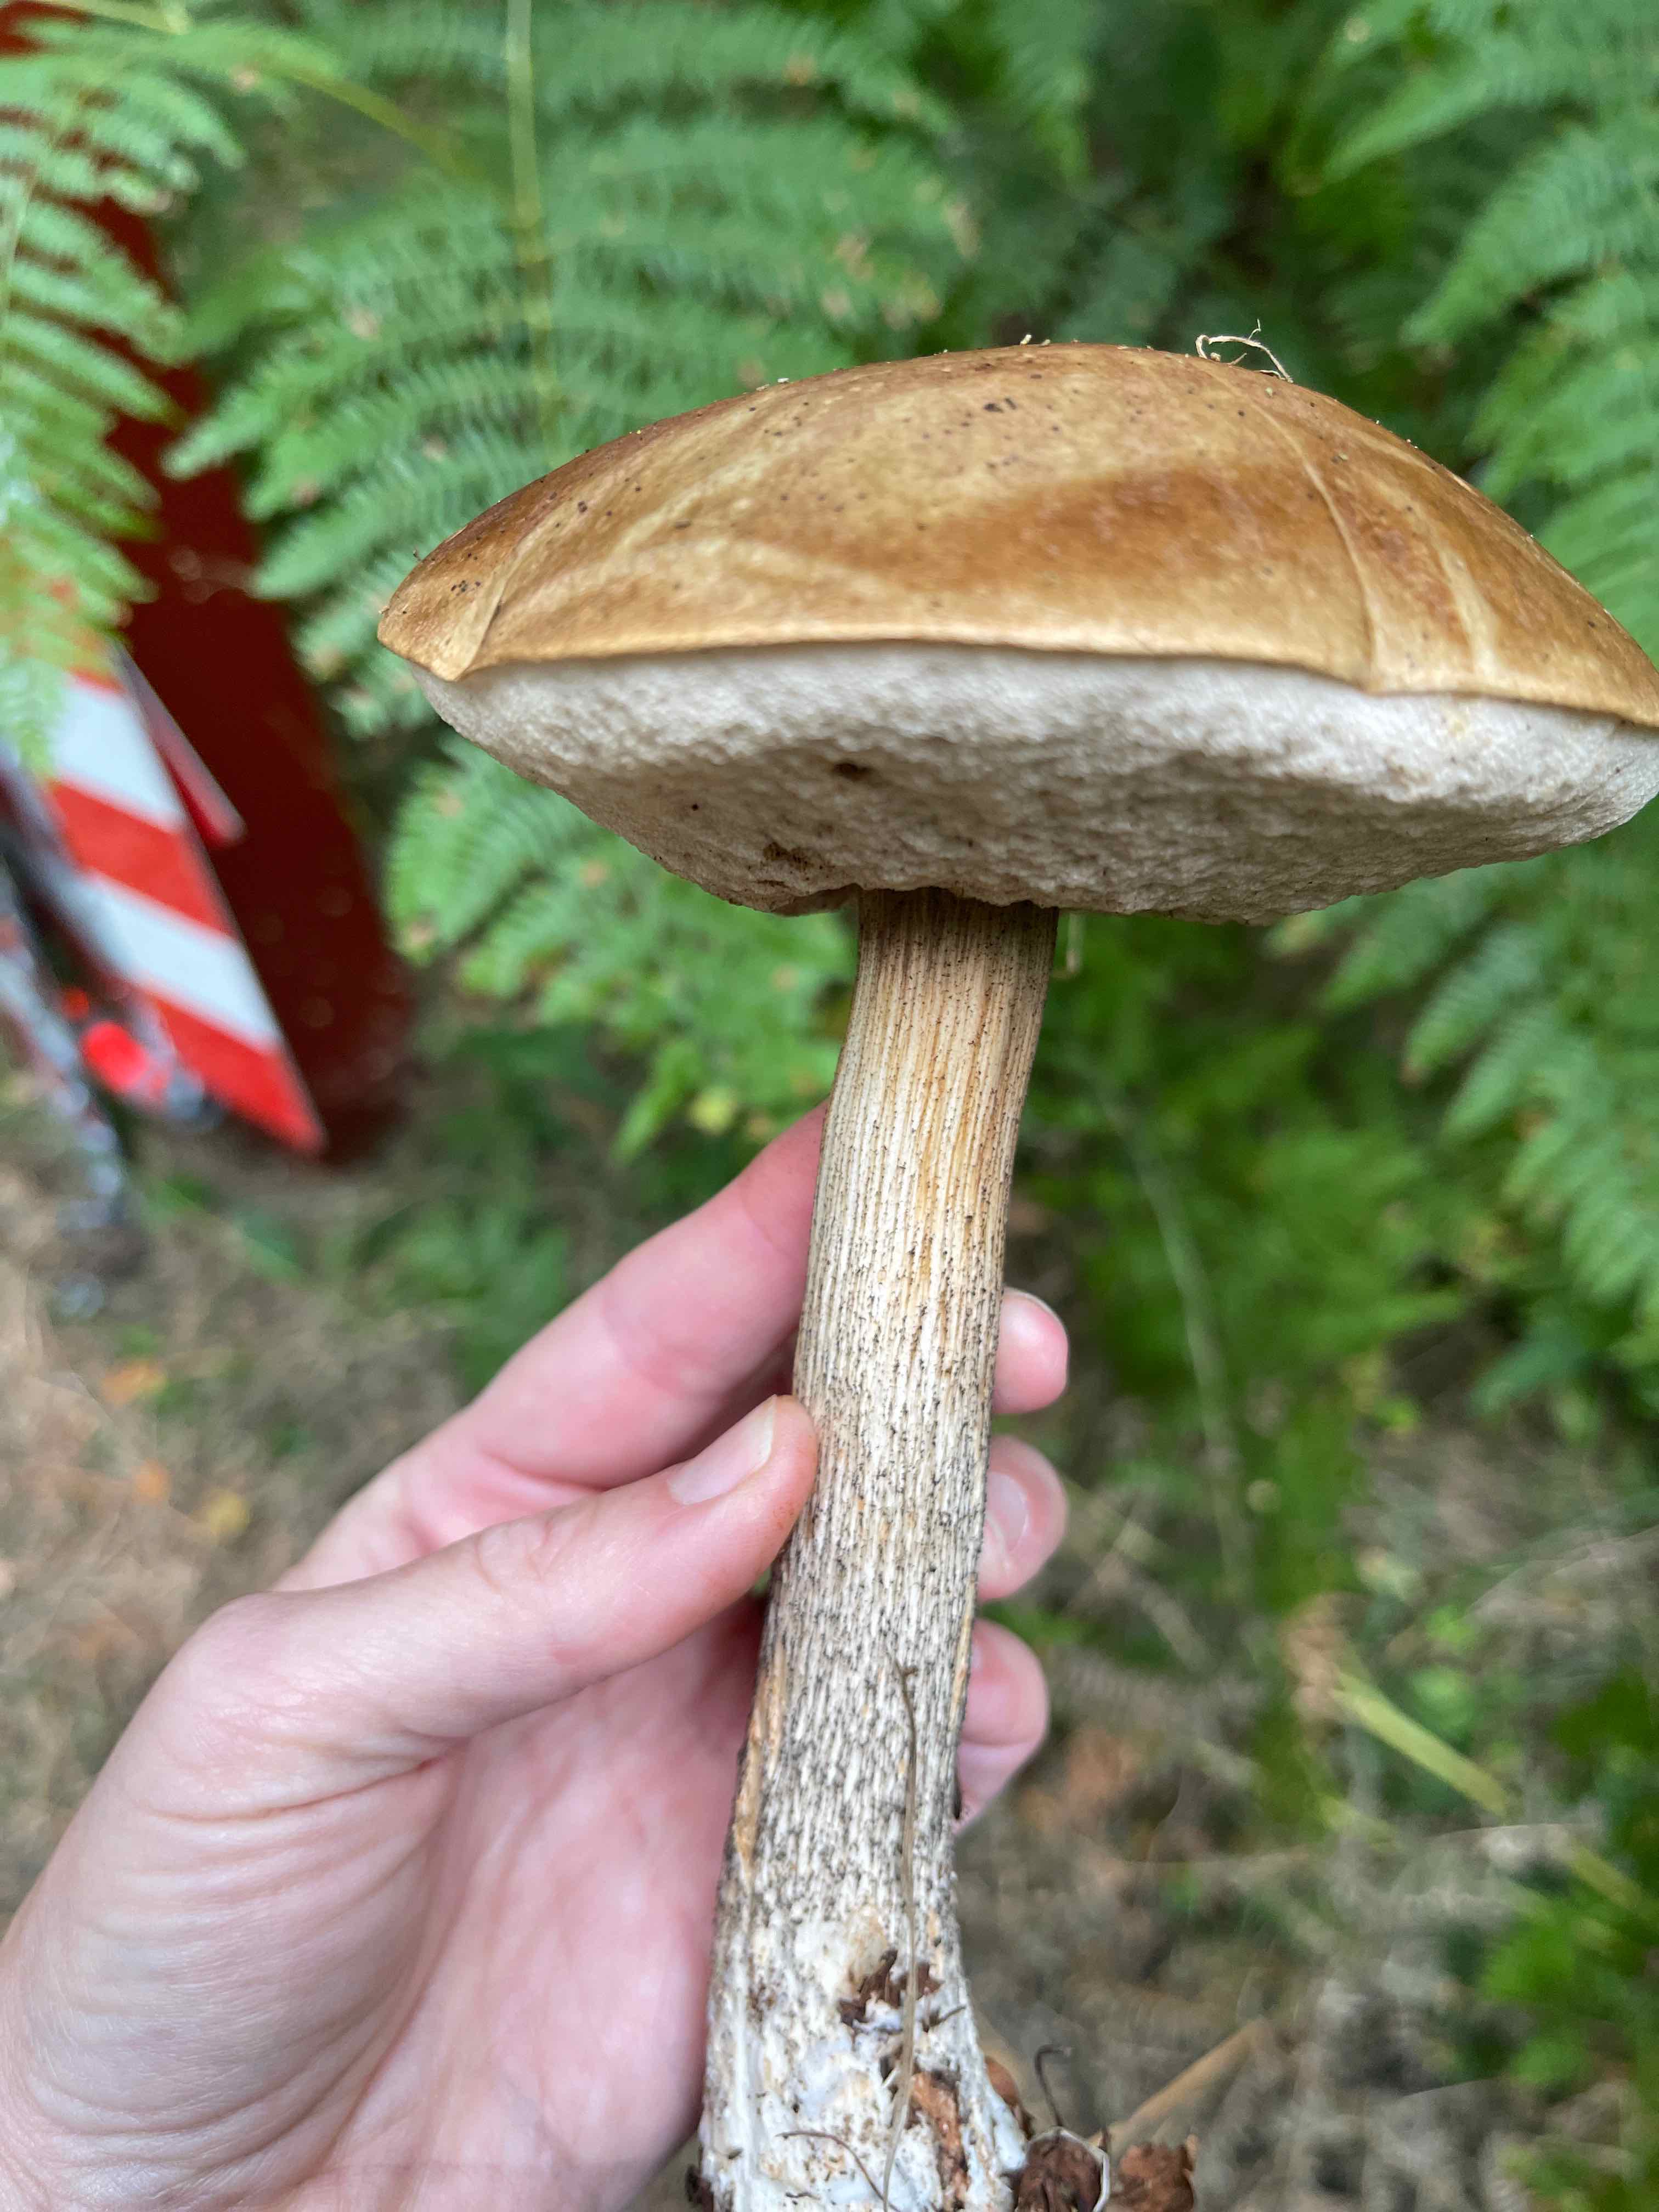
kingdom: Fungi
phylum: Basidiomycota
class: Agaricomycetes
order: Boletales
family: Boletaceae
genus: Leccinum
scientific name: Leccinum scabrum
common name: brun skælrørhat
